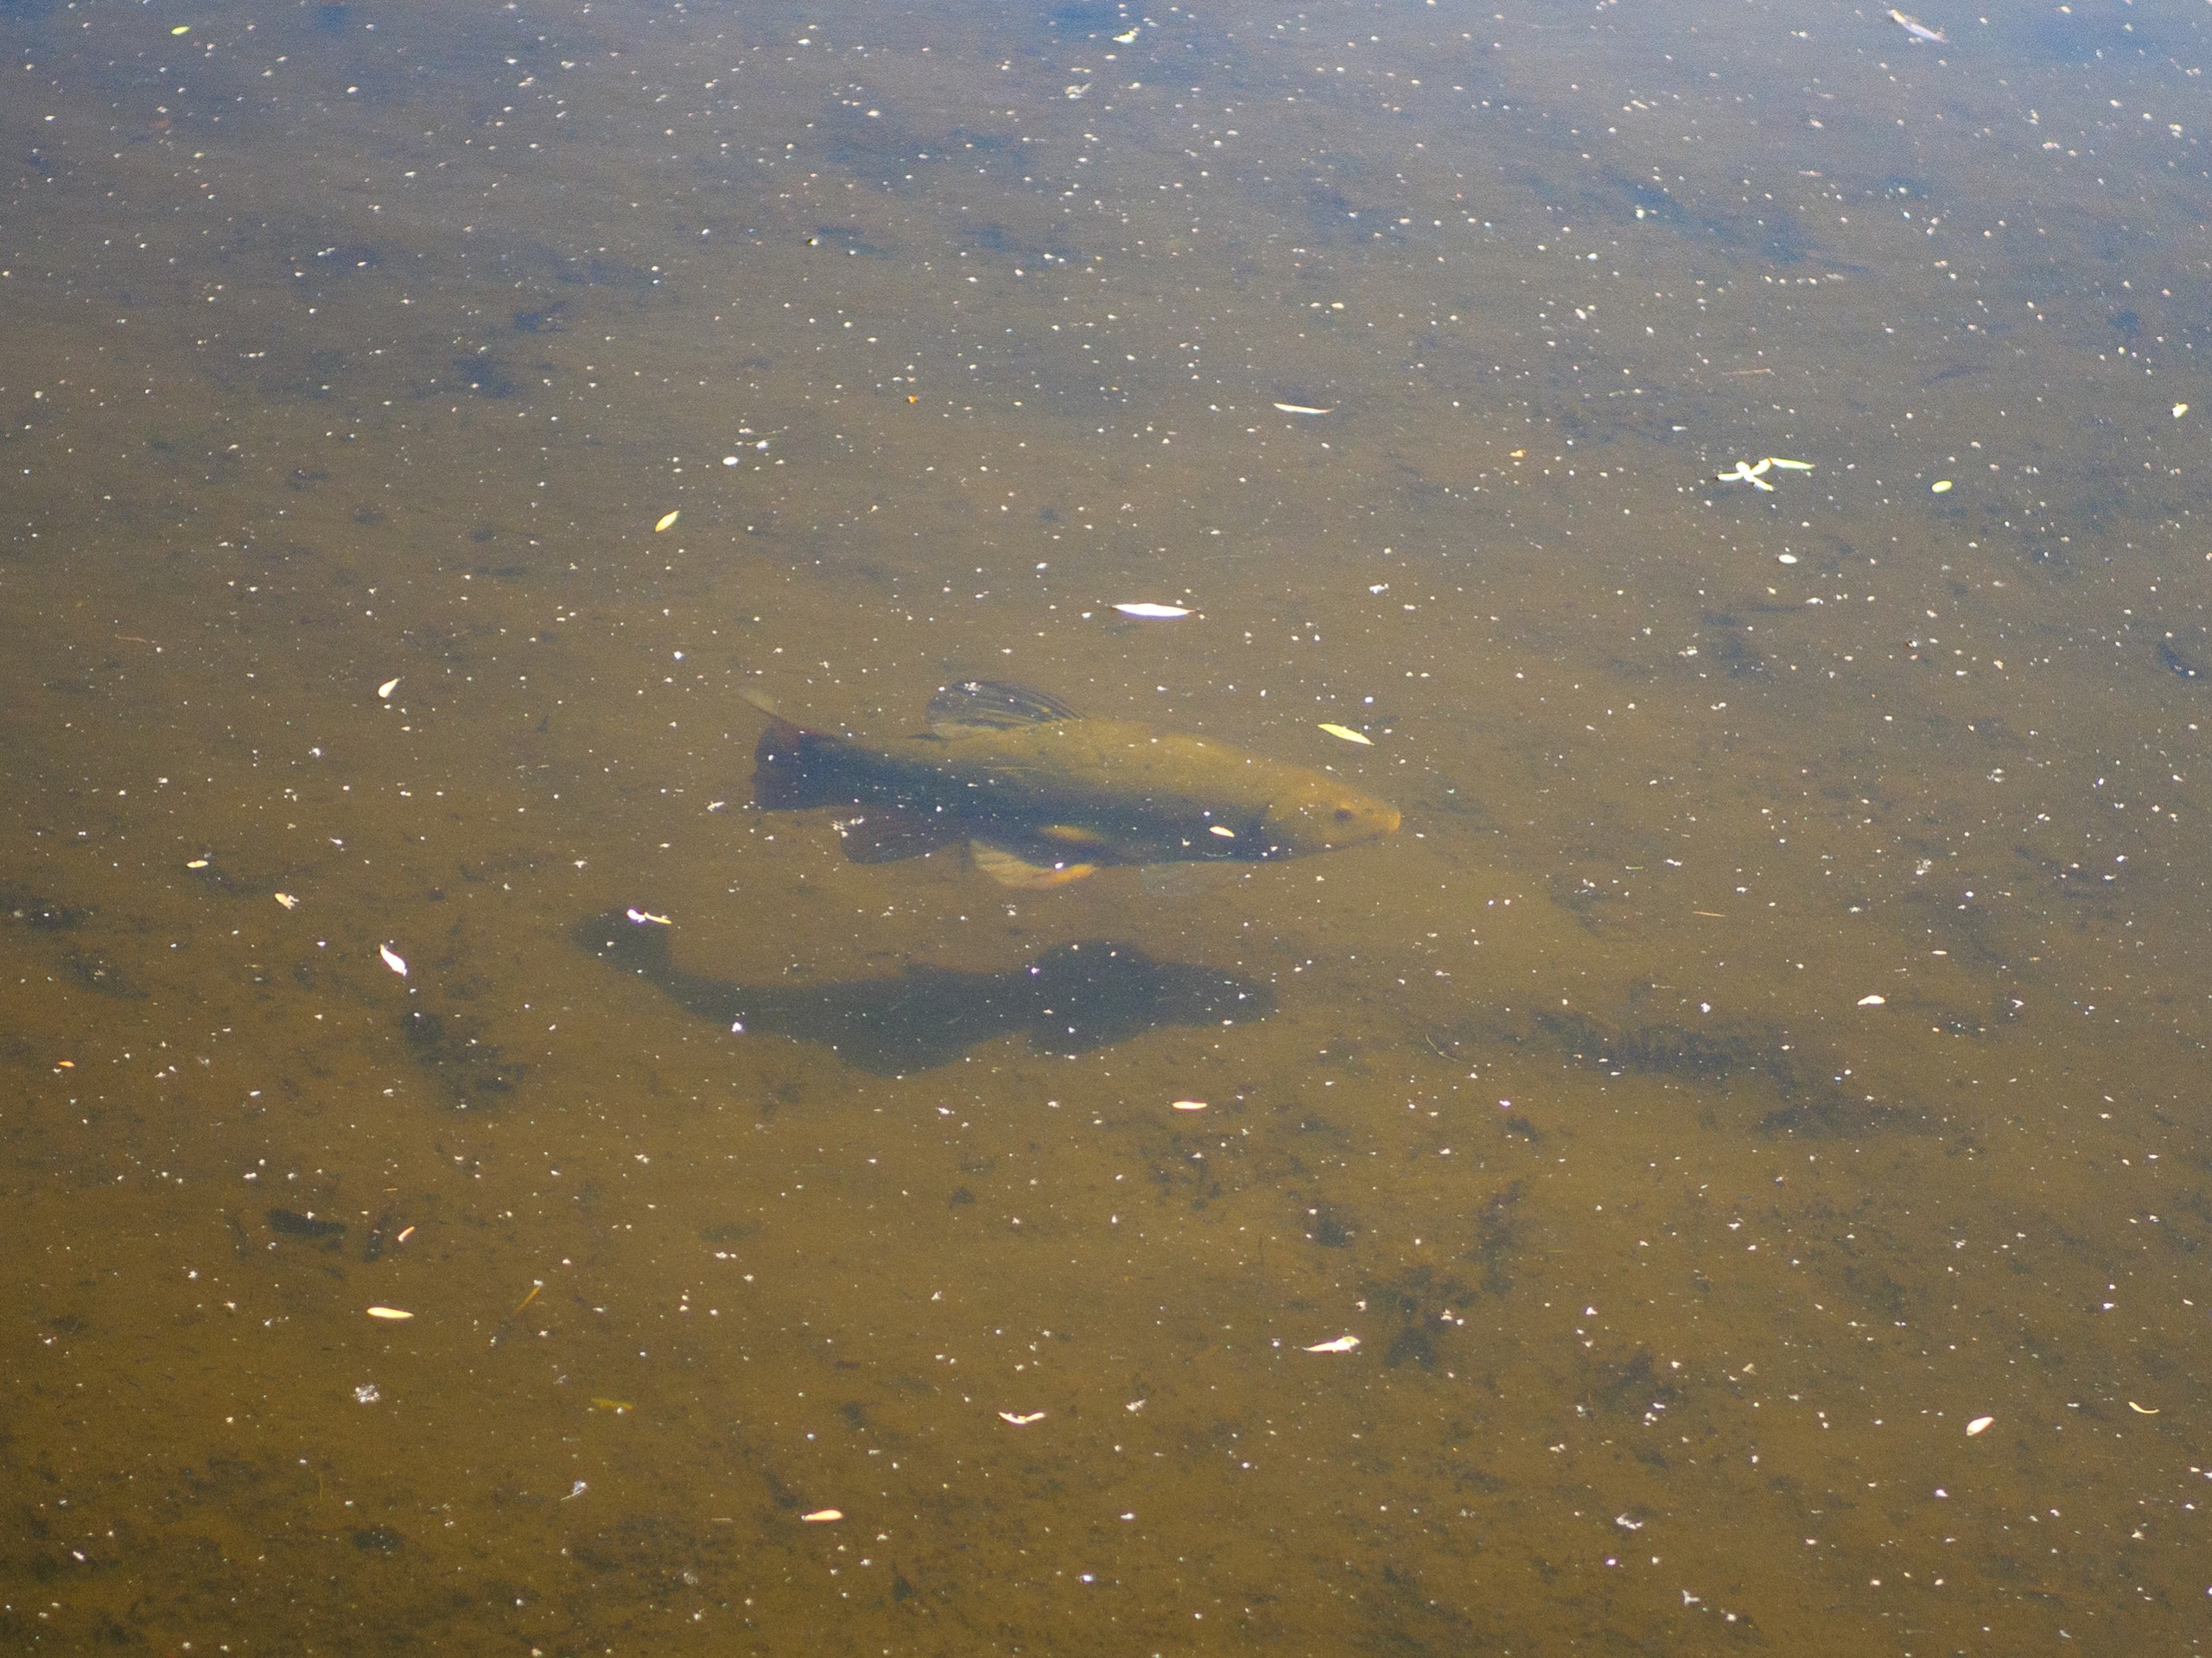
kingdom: Animalia
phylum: Chordata
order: Cypriniformes
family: Cyprinidae
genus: Tinca
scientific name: Tinca tinca
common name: Suder
